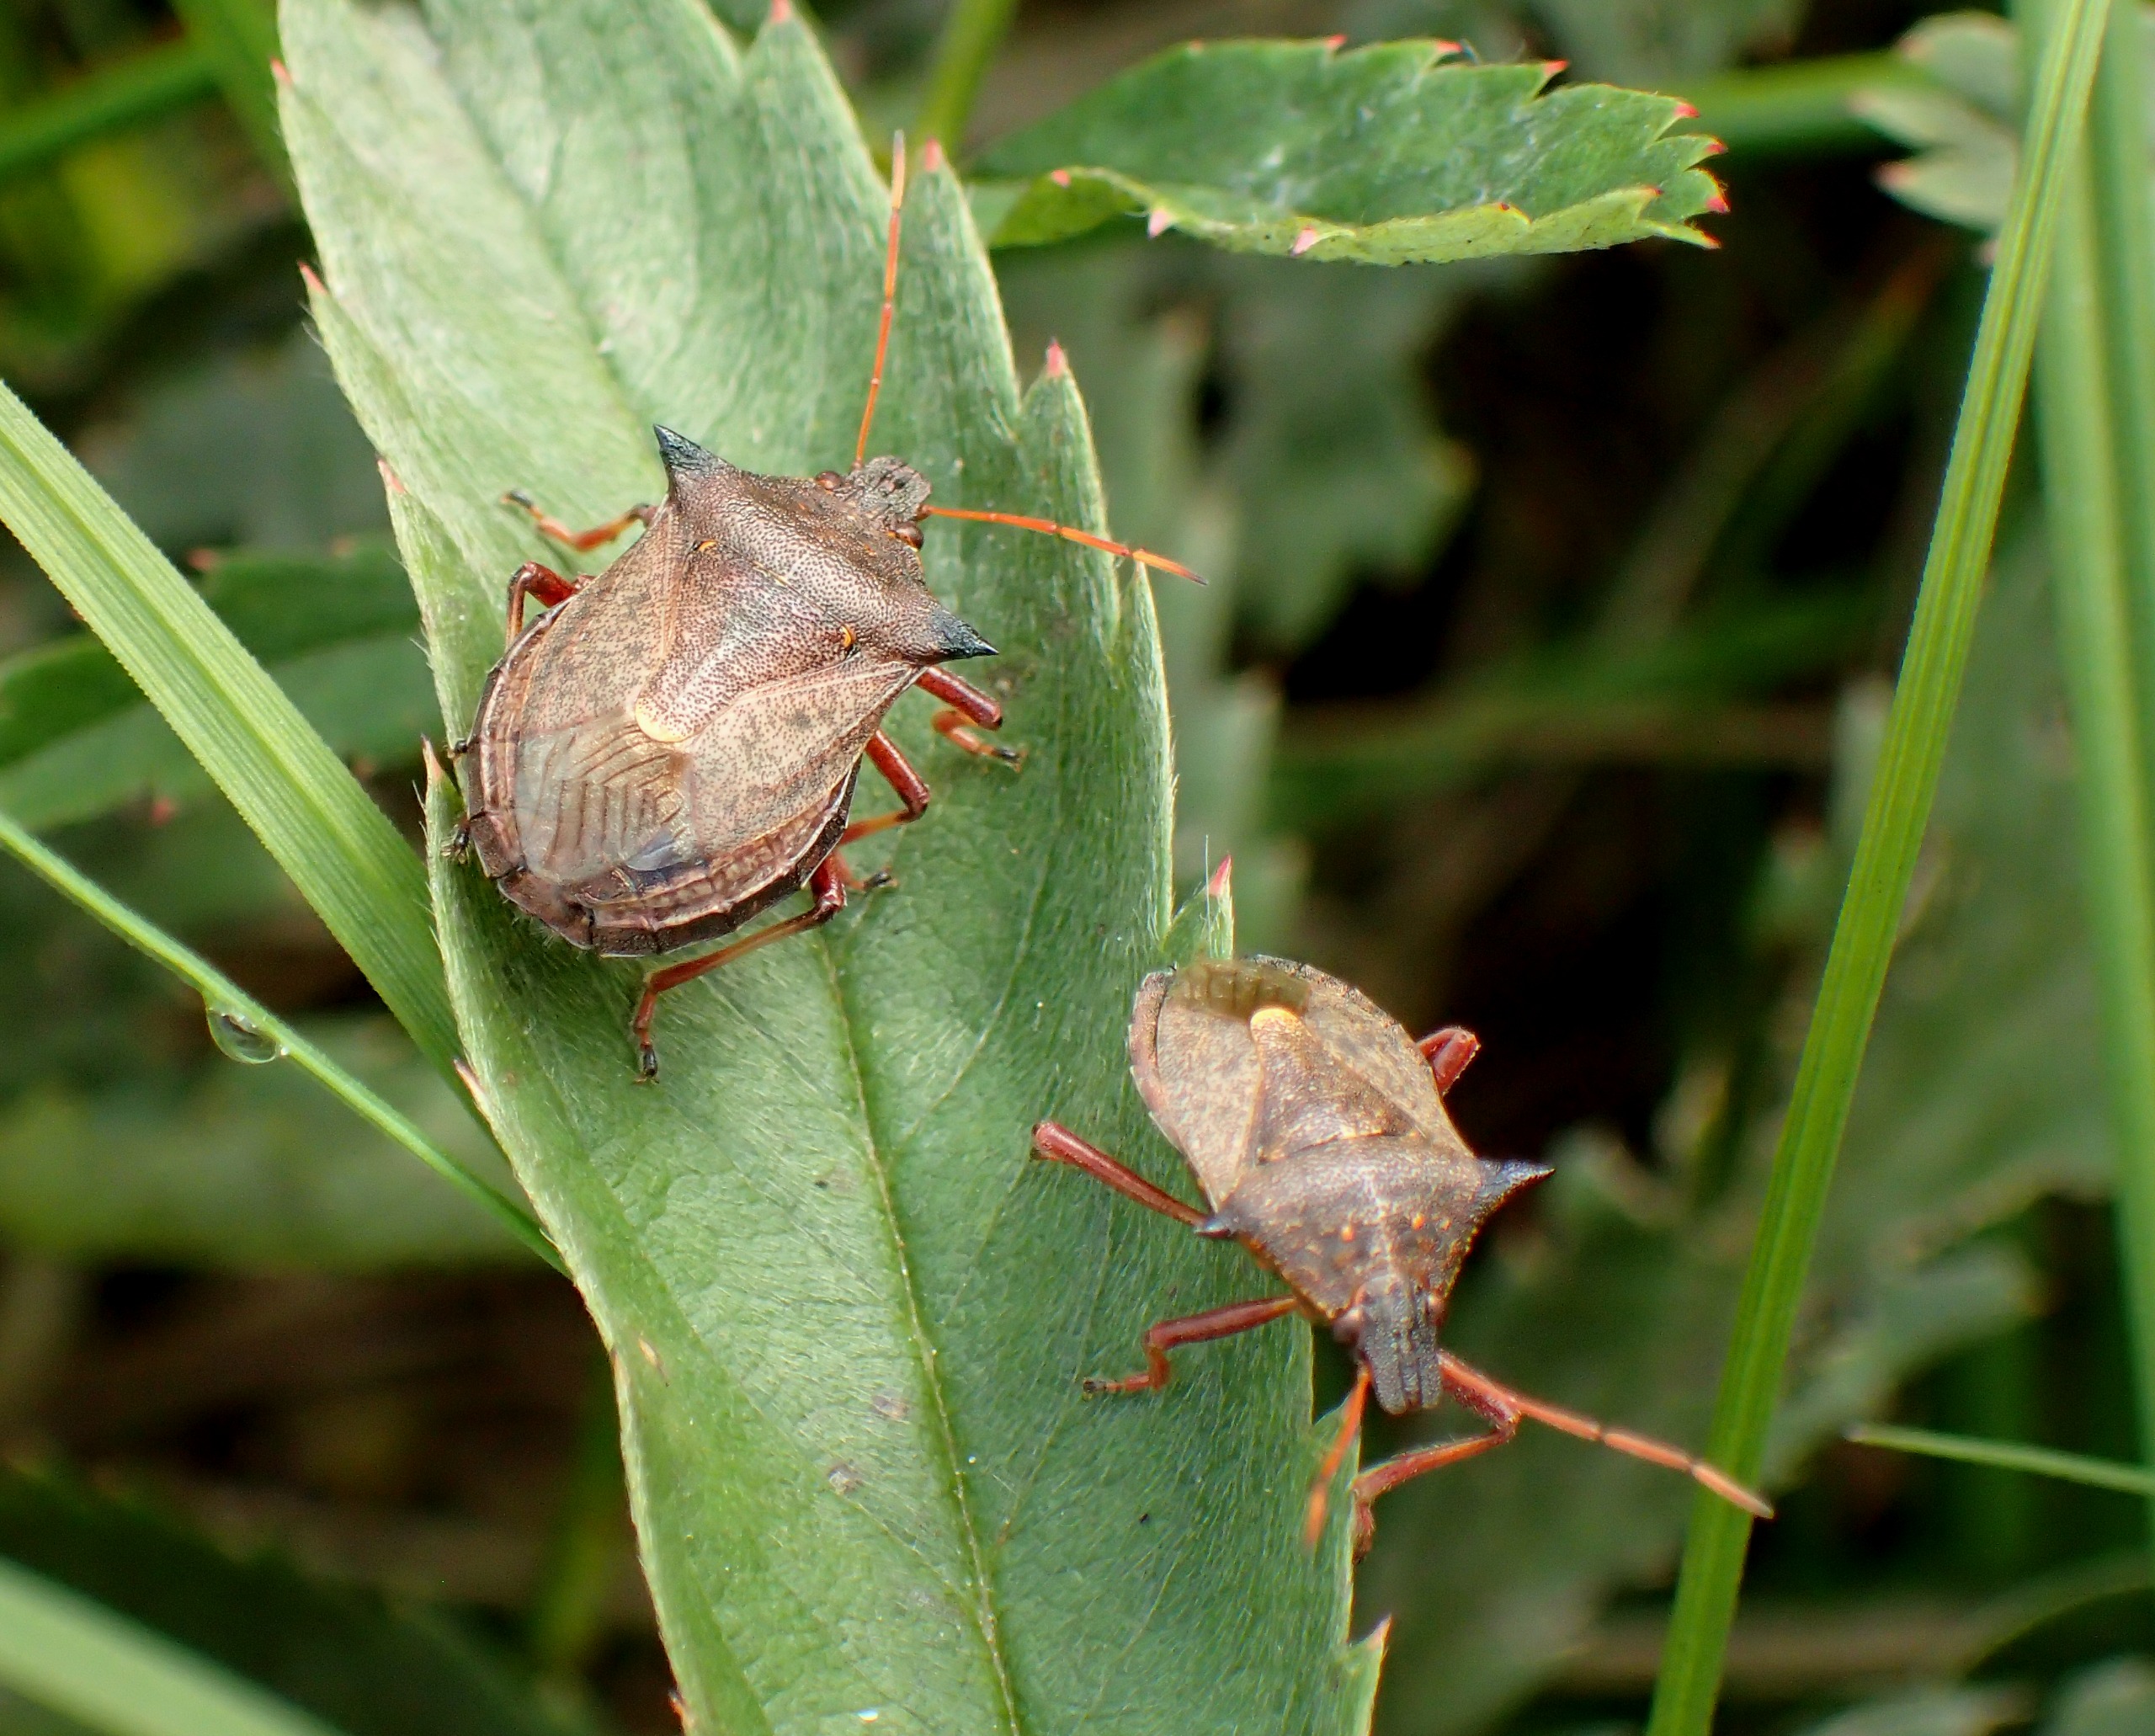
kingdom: Animalia
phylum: Arthropoda
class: Insecta
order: Hemiptera
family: Pentatomidae
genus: Picromerus
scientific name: Picromerus bidens
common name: Torntæge
